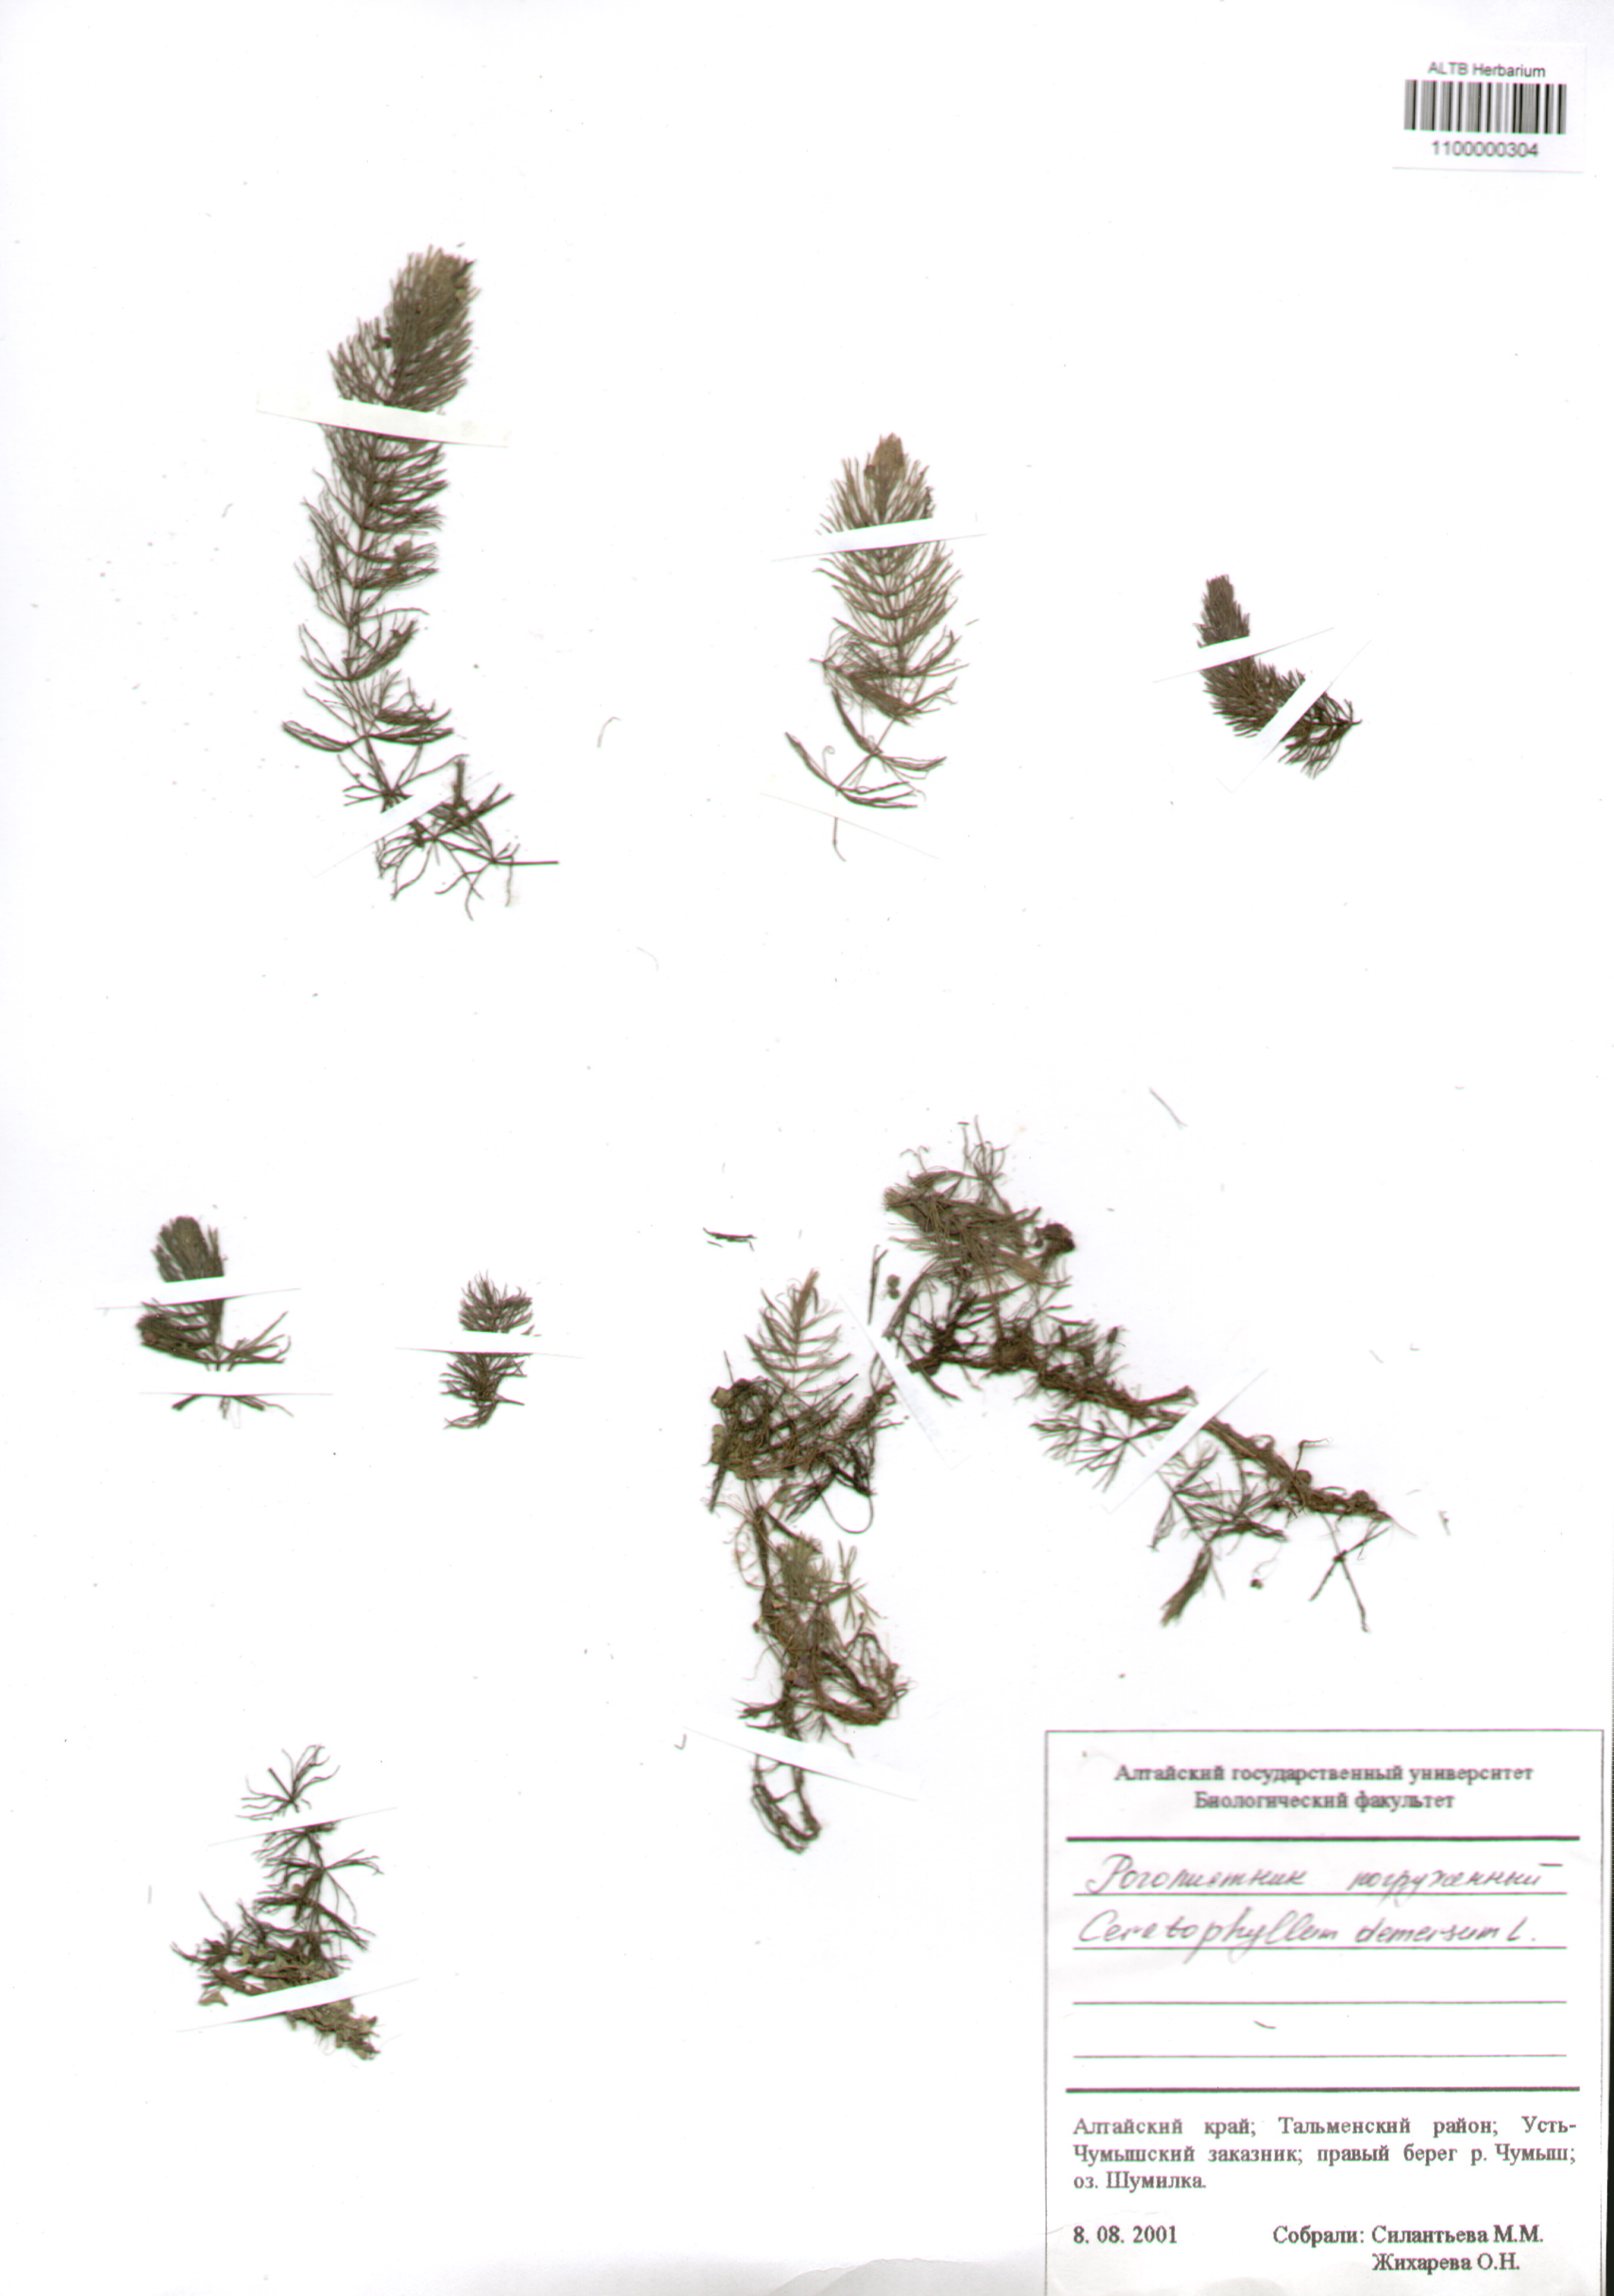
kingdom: Plantae
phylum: Tracheophyta
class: Magnoliopsida
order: Ceratophyllales
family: Ceratophyllaceae
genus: Ceratophyllum
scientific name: Ceratophyllum demersum
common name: Rigid hornwort
